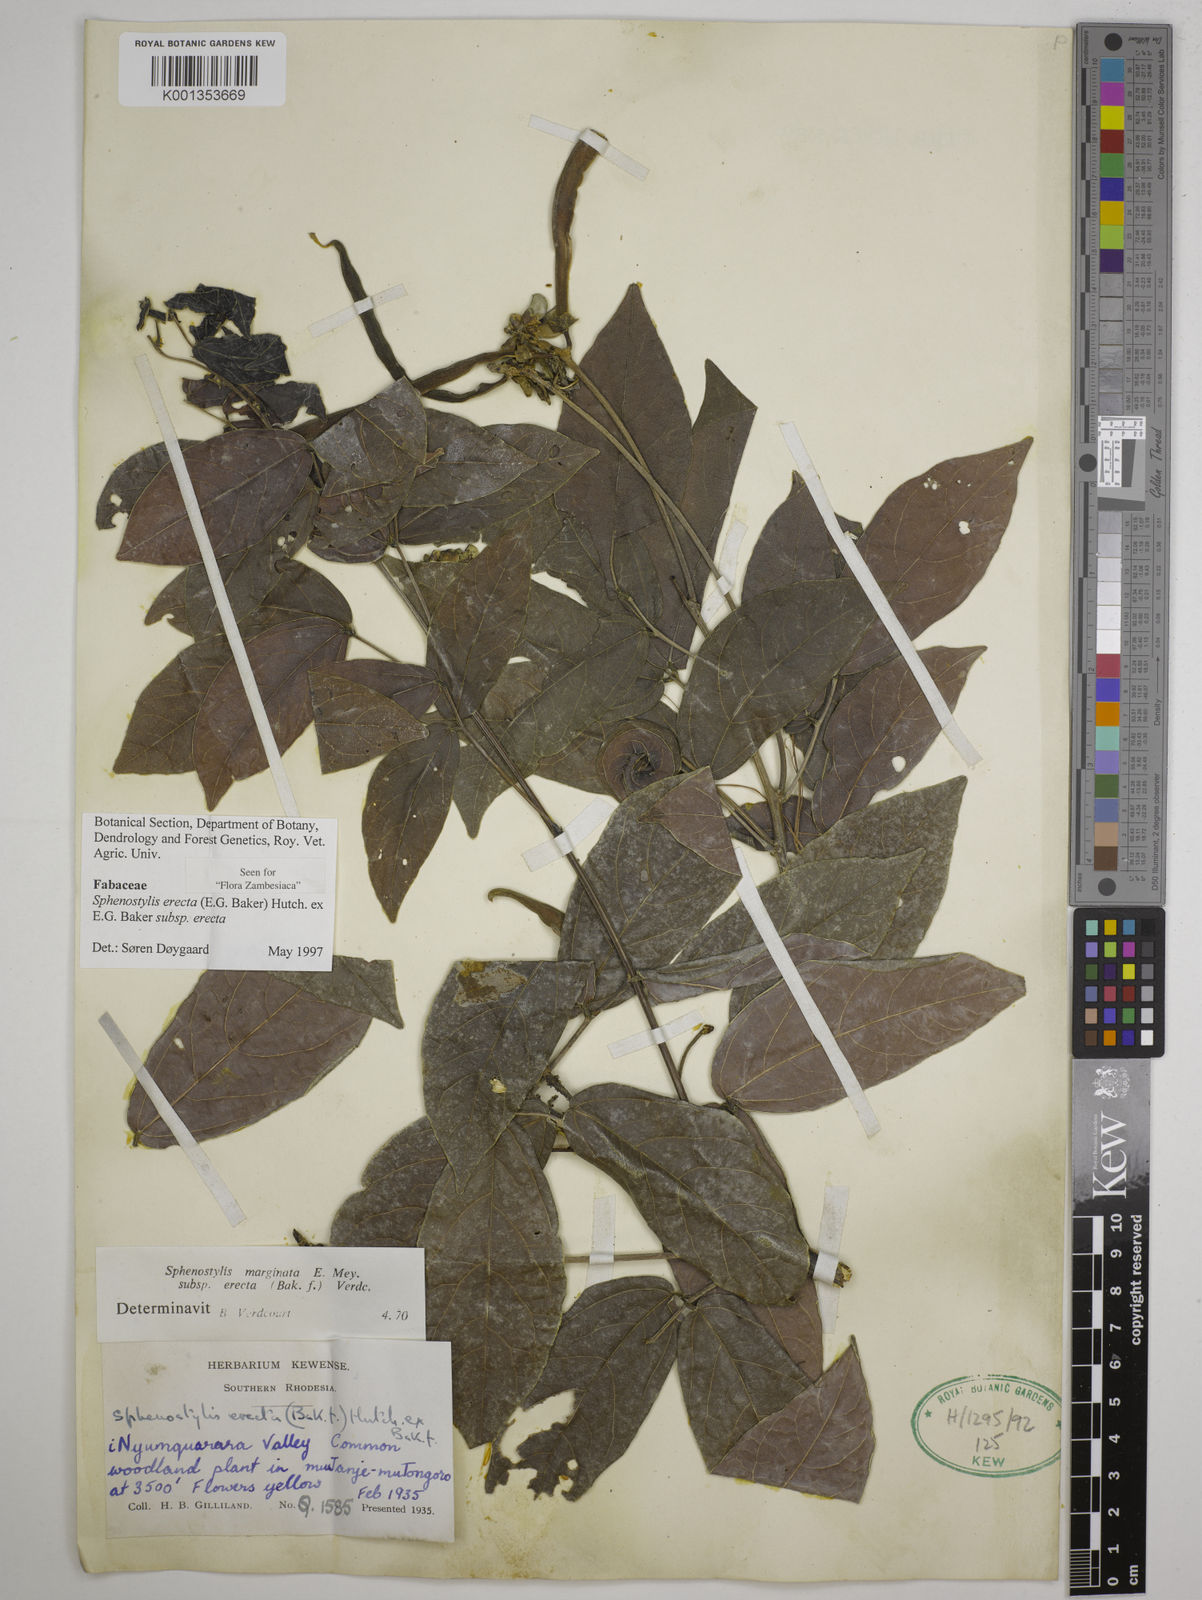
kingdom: Plantae
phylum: Tracheophyta
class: Magnoliopsida
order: Fabales
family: Fabaceae
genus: Sphenostylis
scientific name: Sphenostylis erecta
